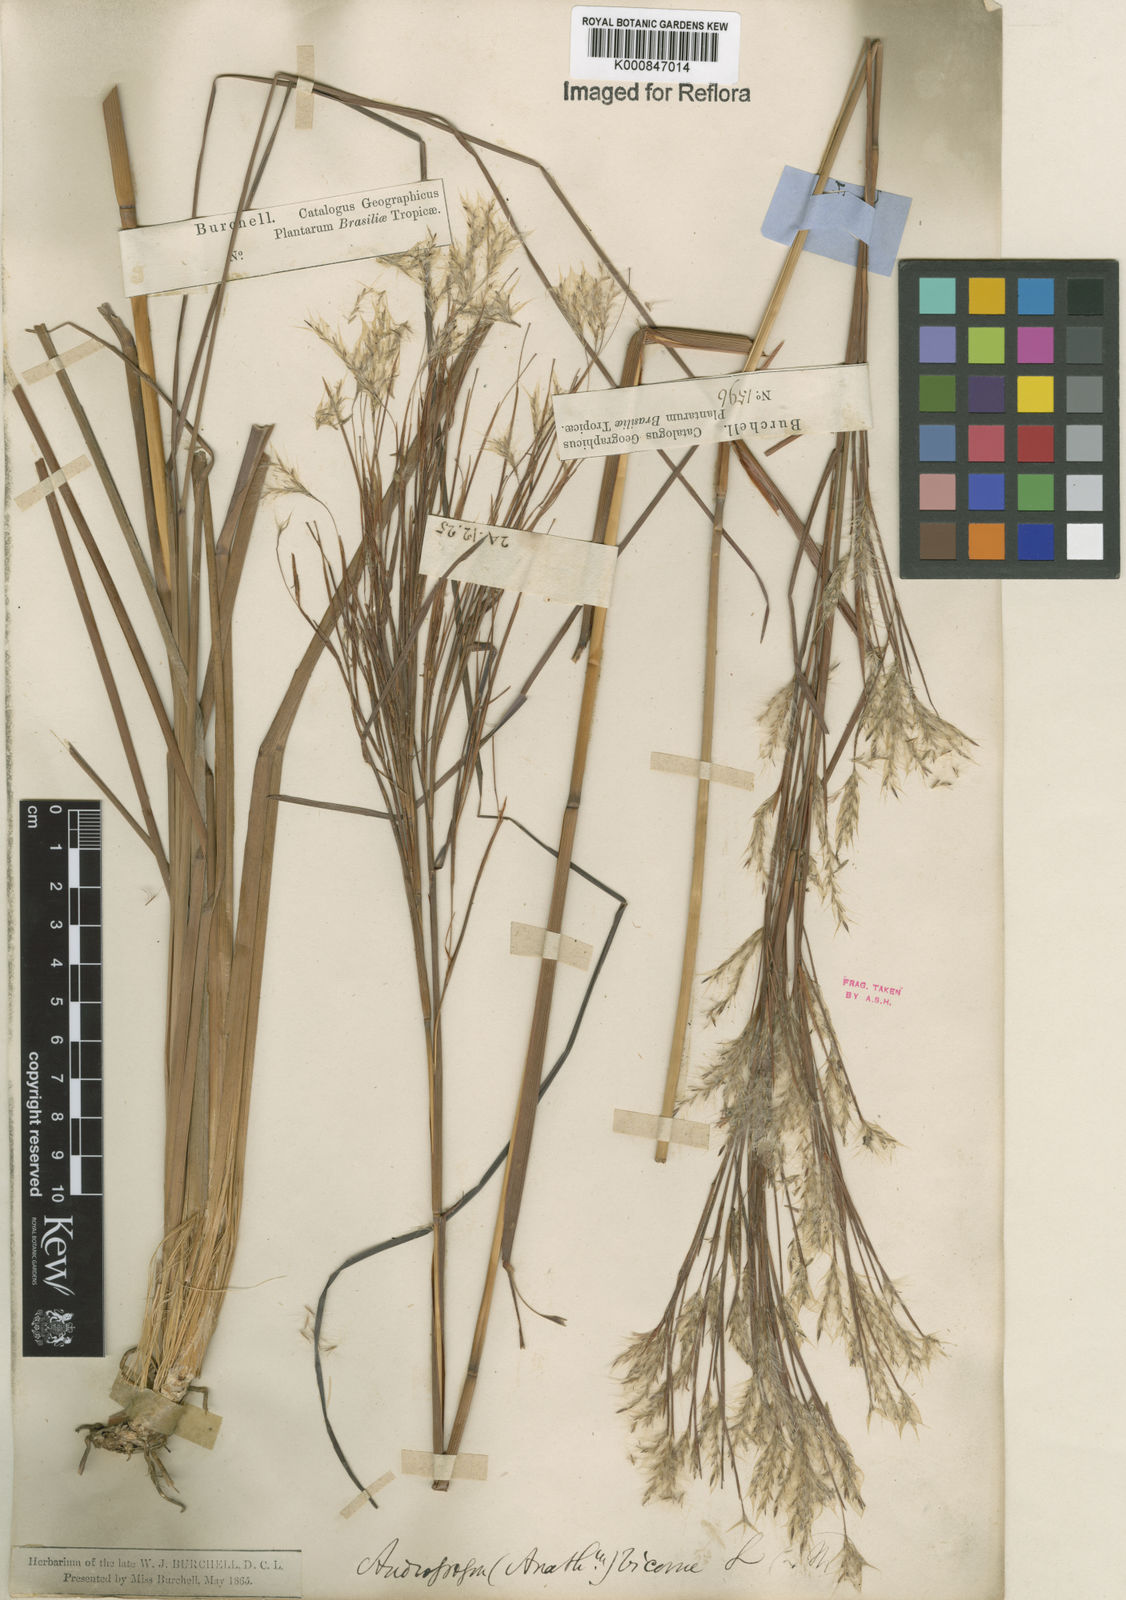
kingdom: Plantae
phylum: Tracheophyta
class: Liliopsida
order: Poales
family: Poaceae
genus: Andropogon
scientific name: Andropogon
